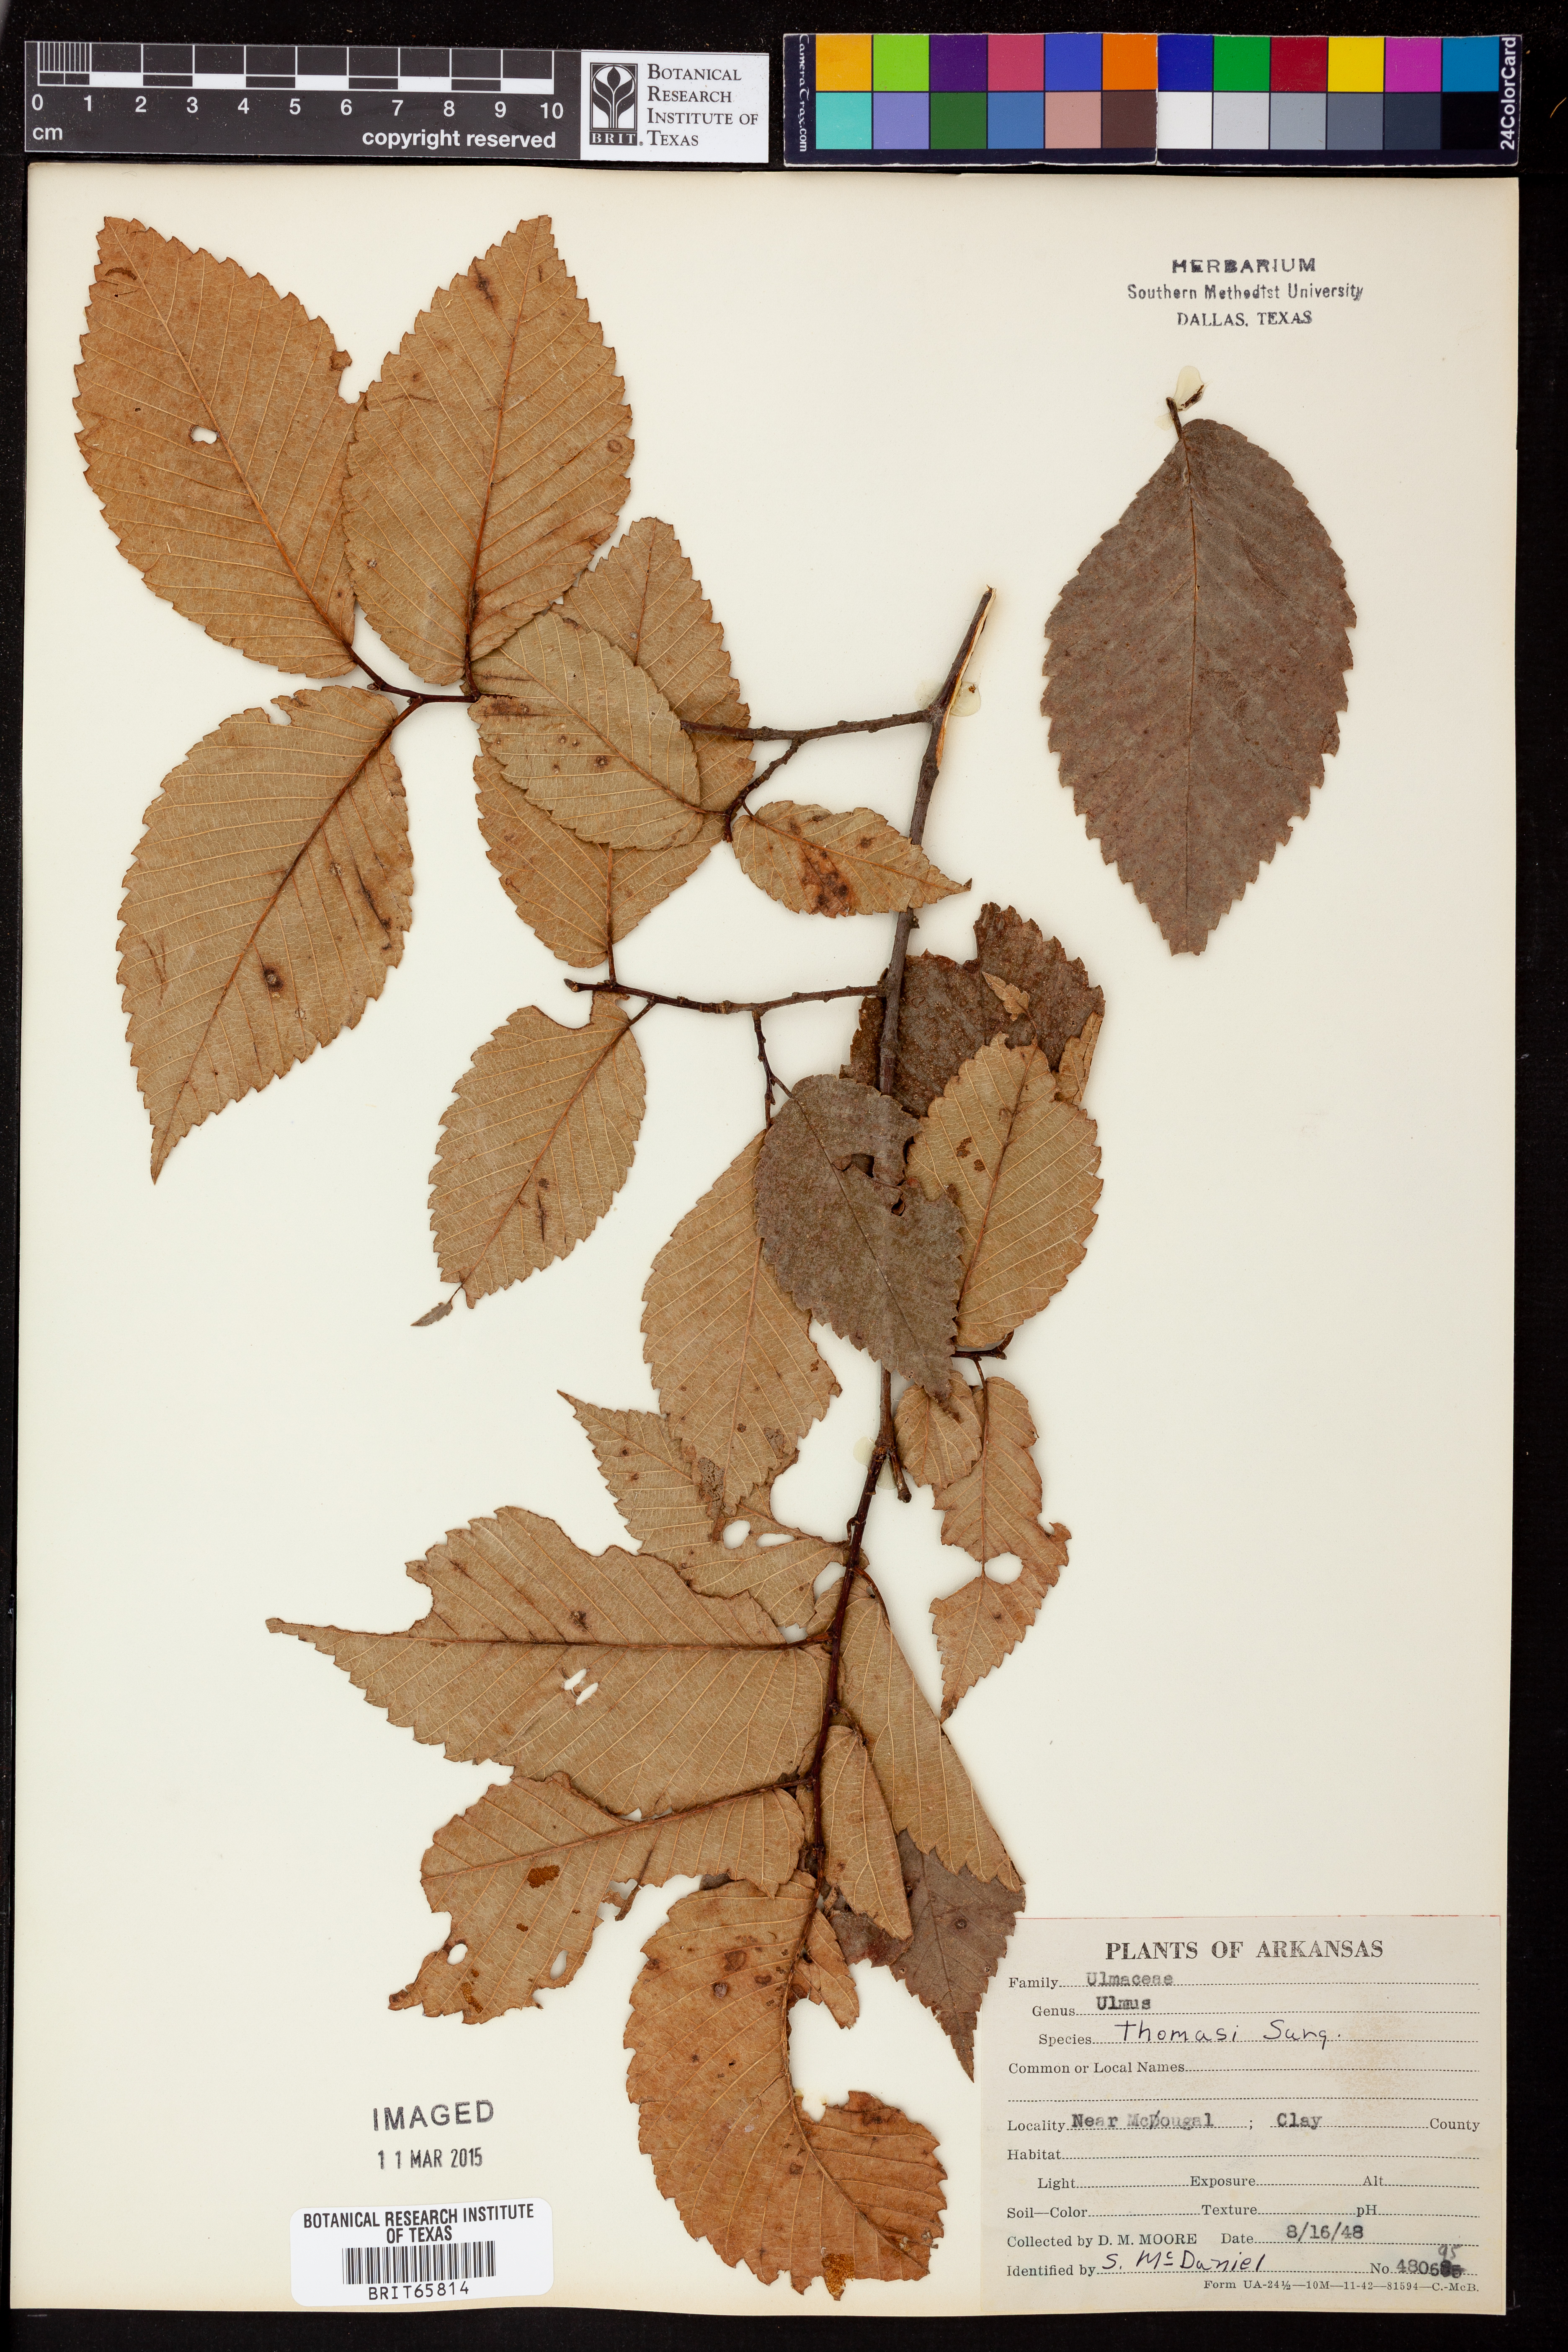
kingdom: Plantae
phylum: Tracheophyta
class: Magnoliopsida
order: Rosales
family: Ulmaceae
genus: Ulmus
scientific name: Ulmus thomasii
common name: Rock elm
